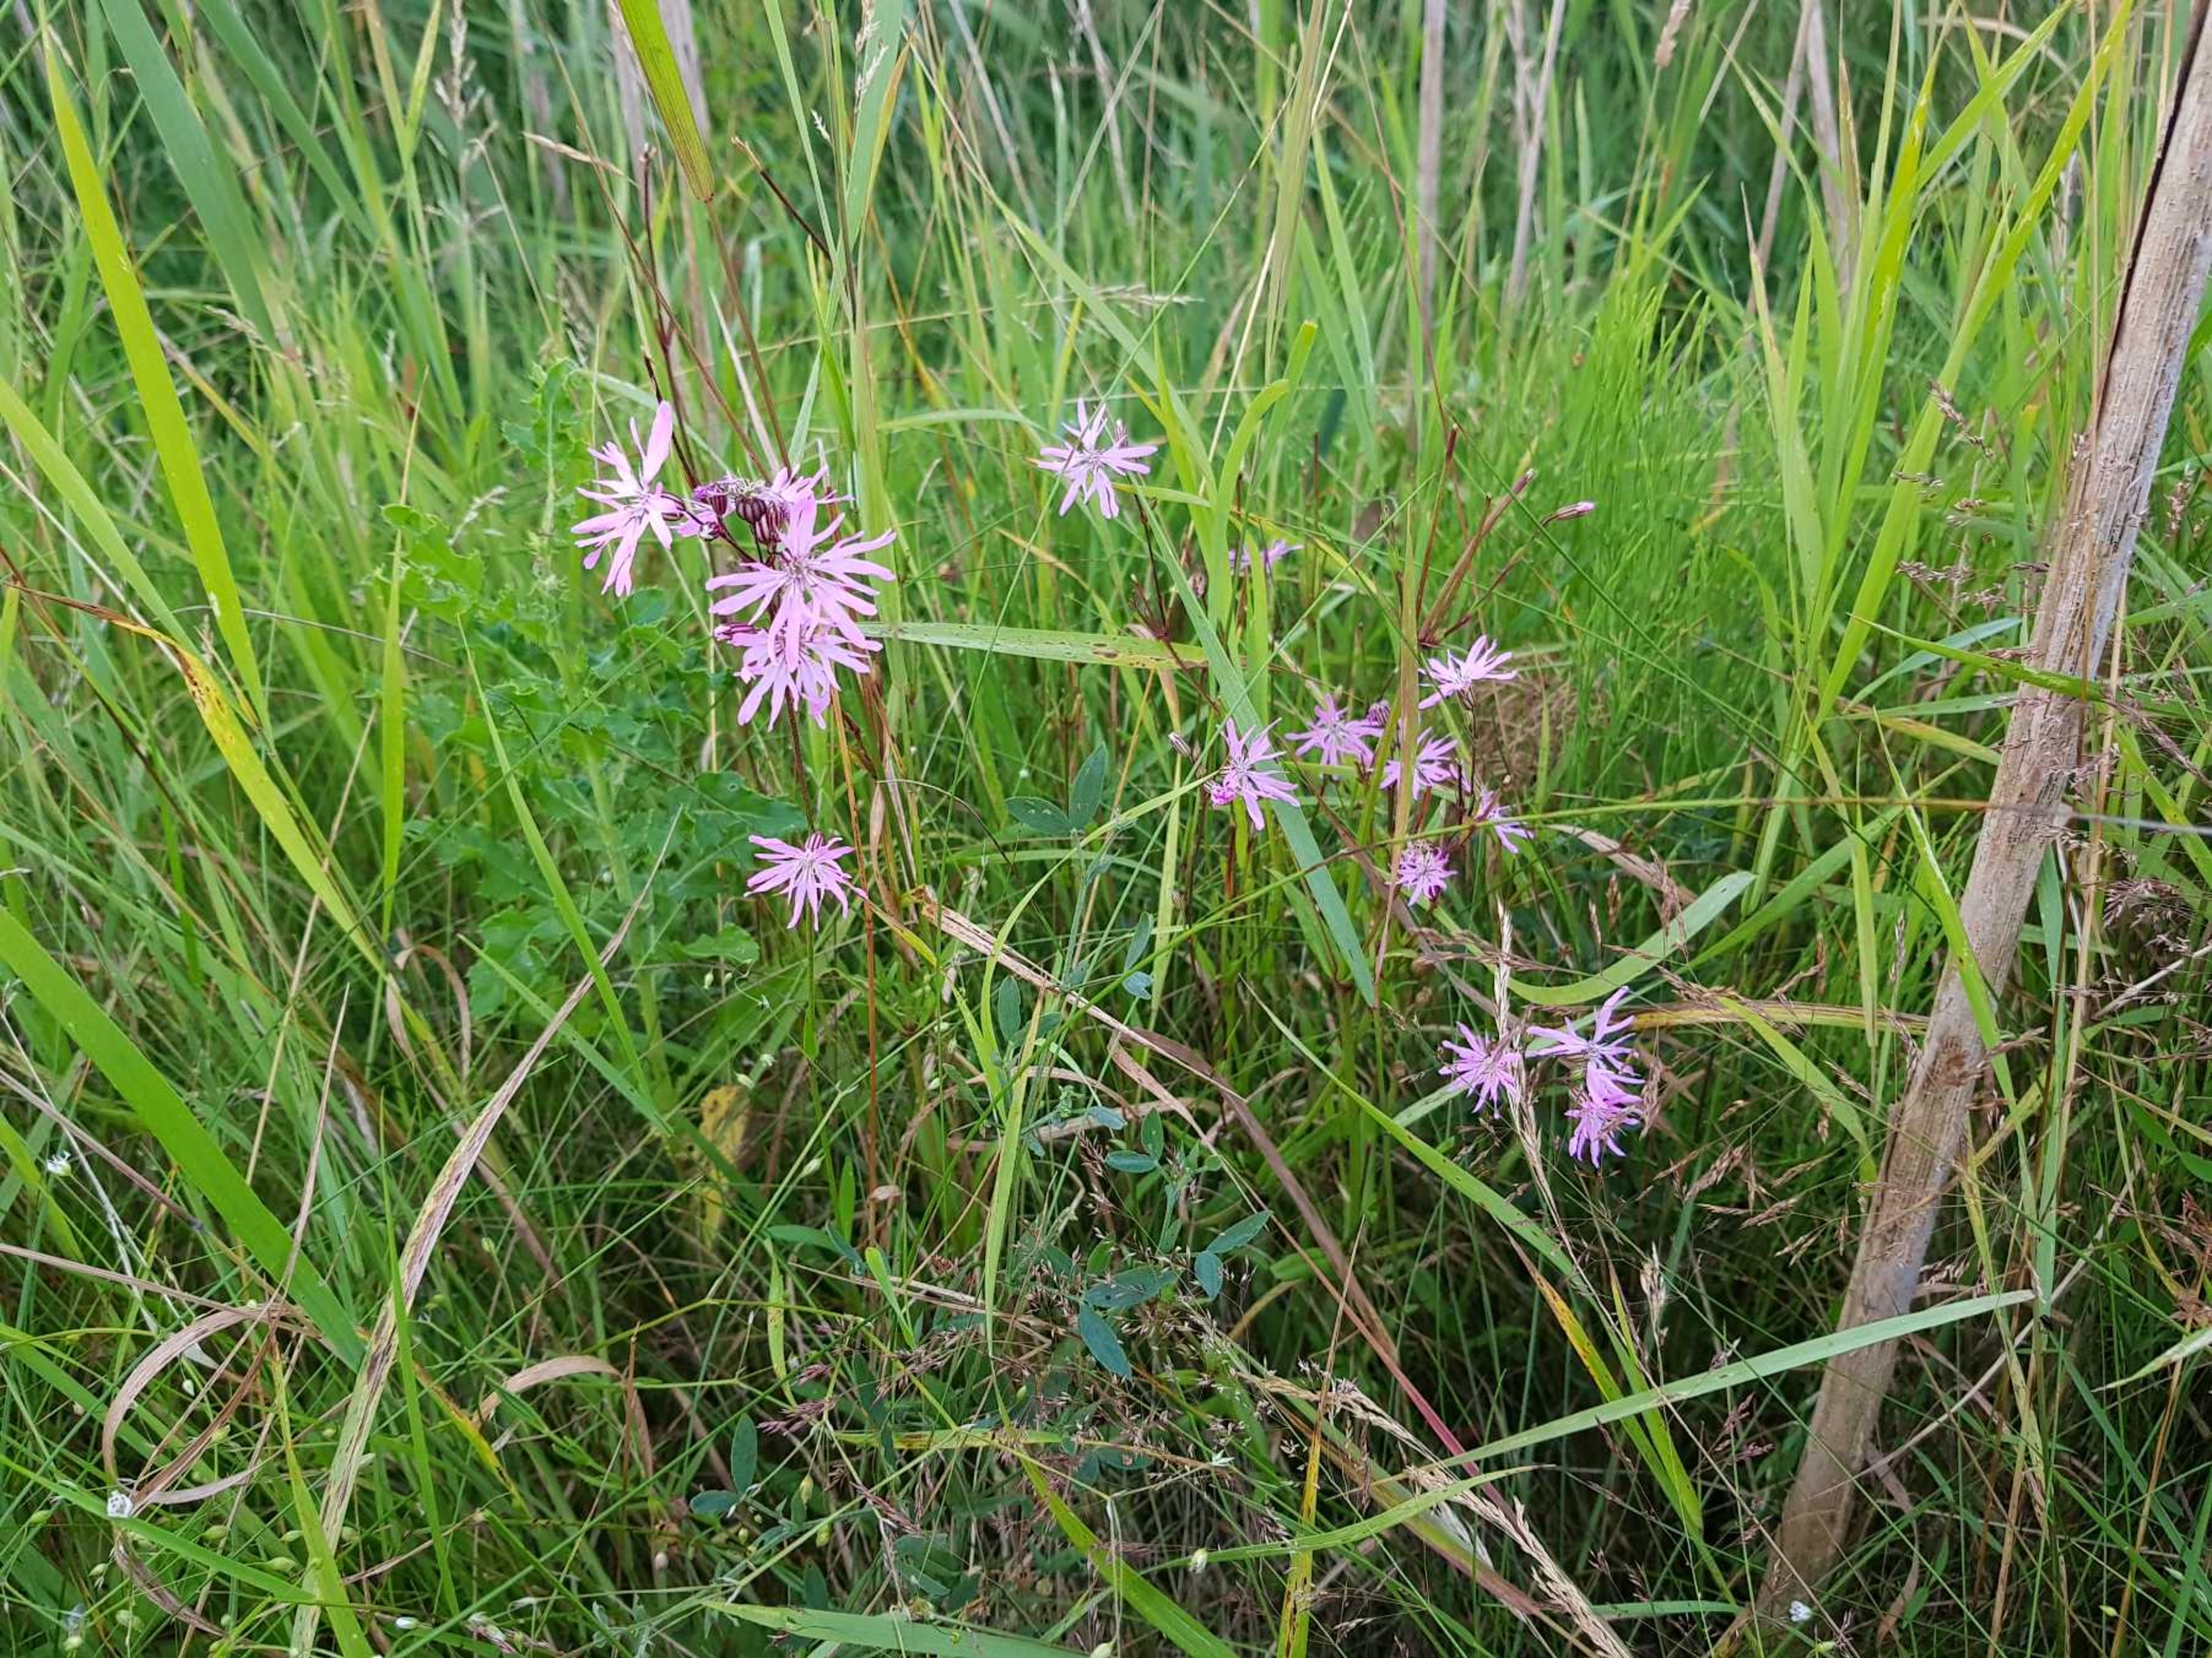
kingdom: Plantae
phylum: Tracheophyta
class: Magnoliopsida
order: Caryophyllales
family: Caryophyllaceae
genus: Silene
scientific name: Silene flos-cuculi
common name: Trævlekrone
